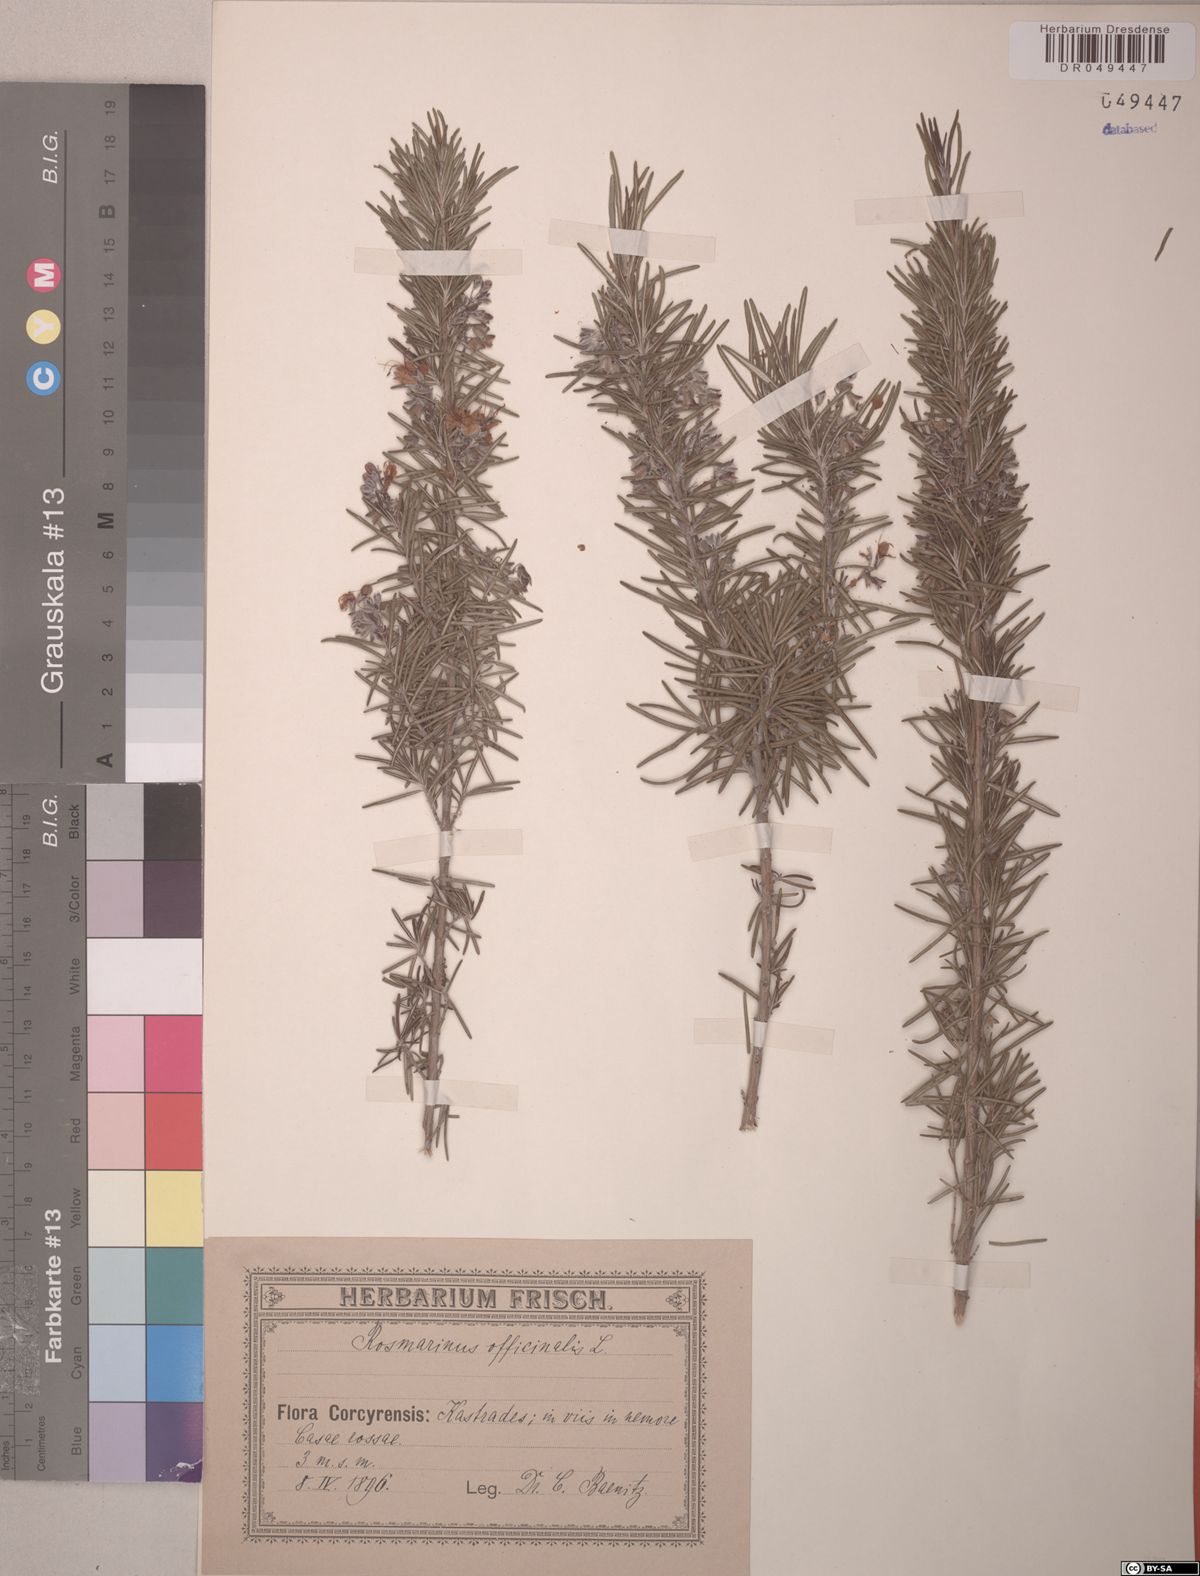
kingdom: Plantae
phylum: Tracheophyta
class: Magnoliopsida
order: Lamiales
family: Lamiaceae
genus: Salvia
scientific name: Salvia rosmarinus
